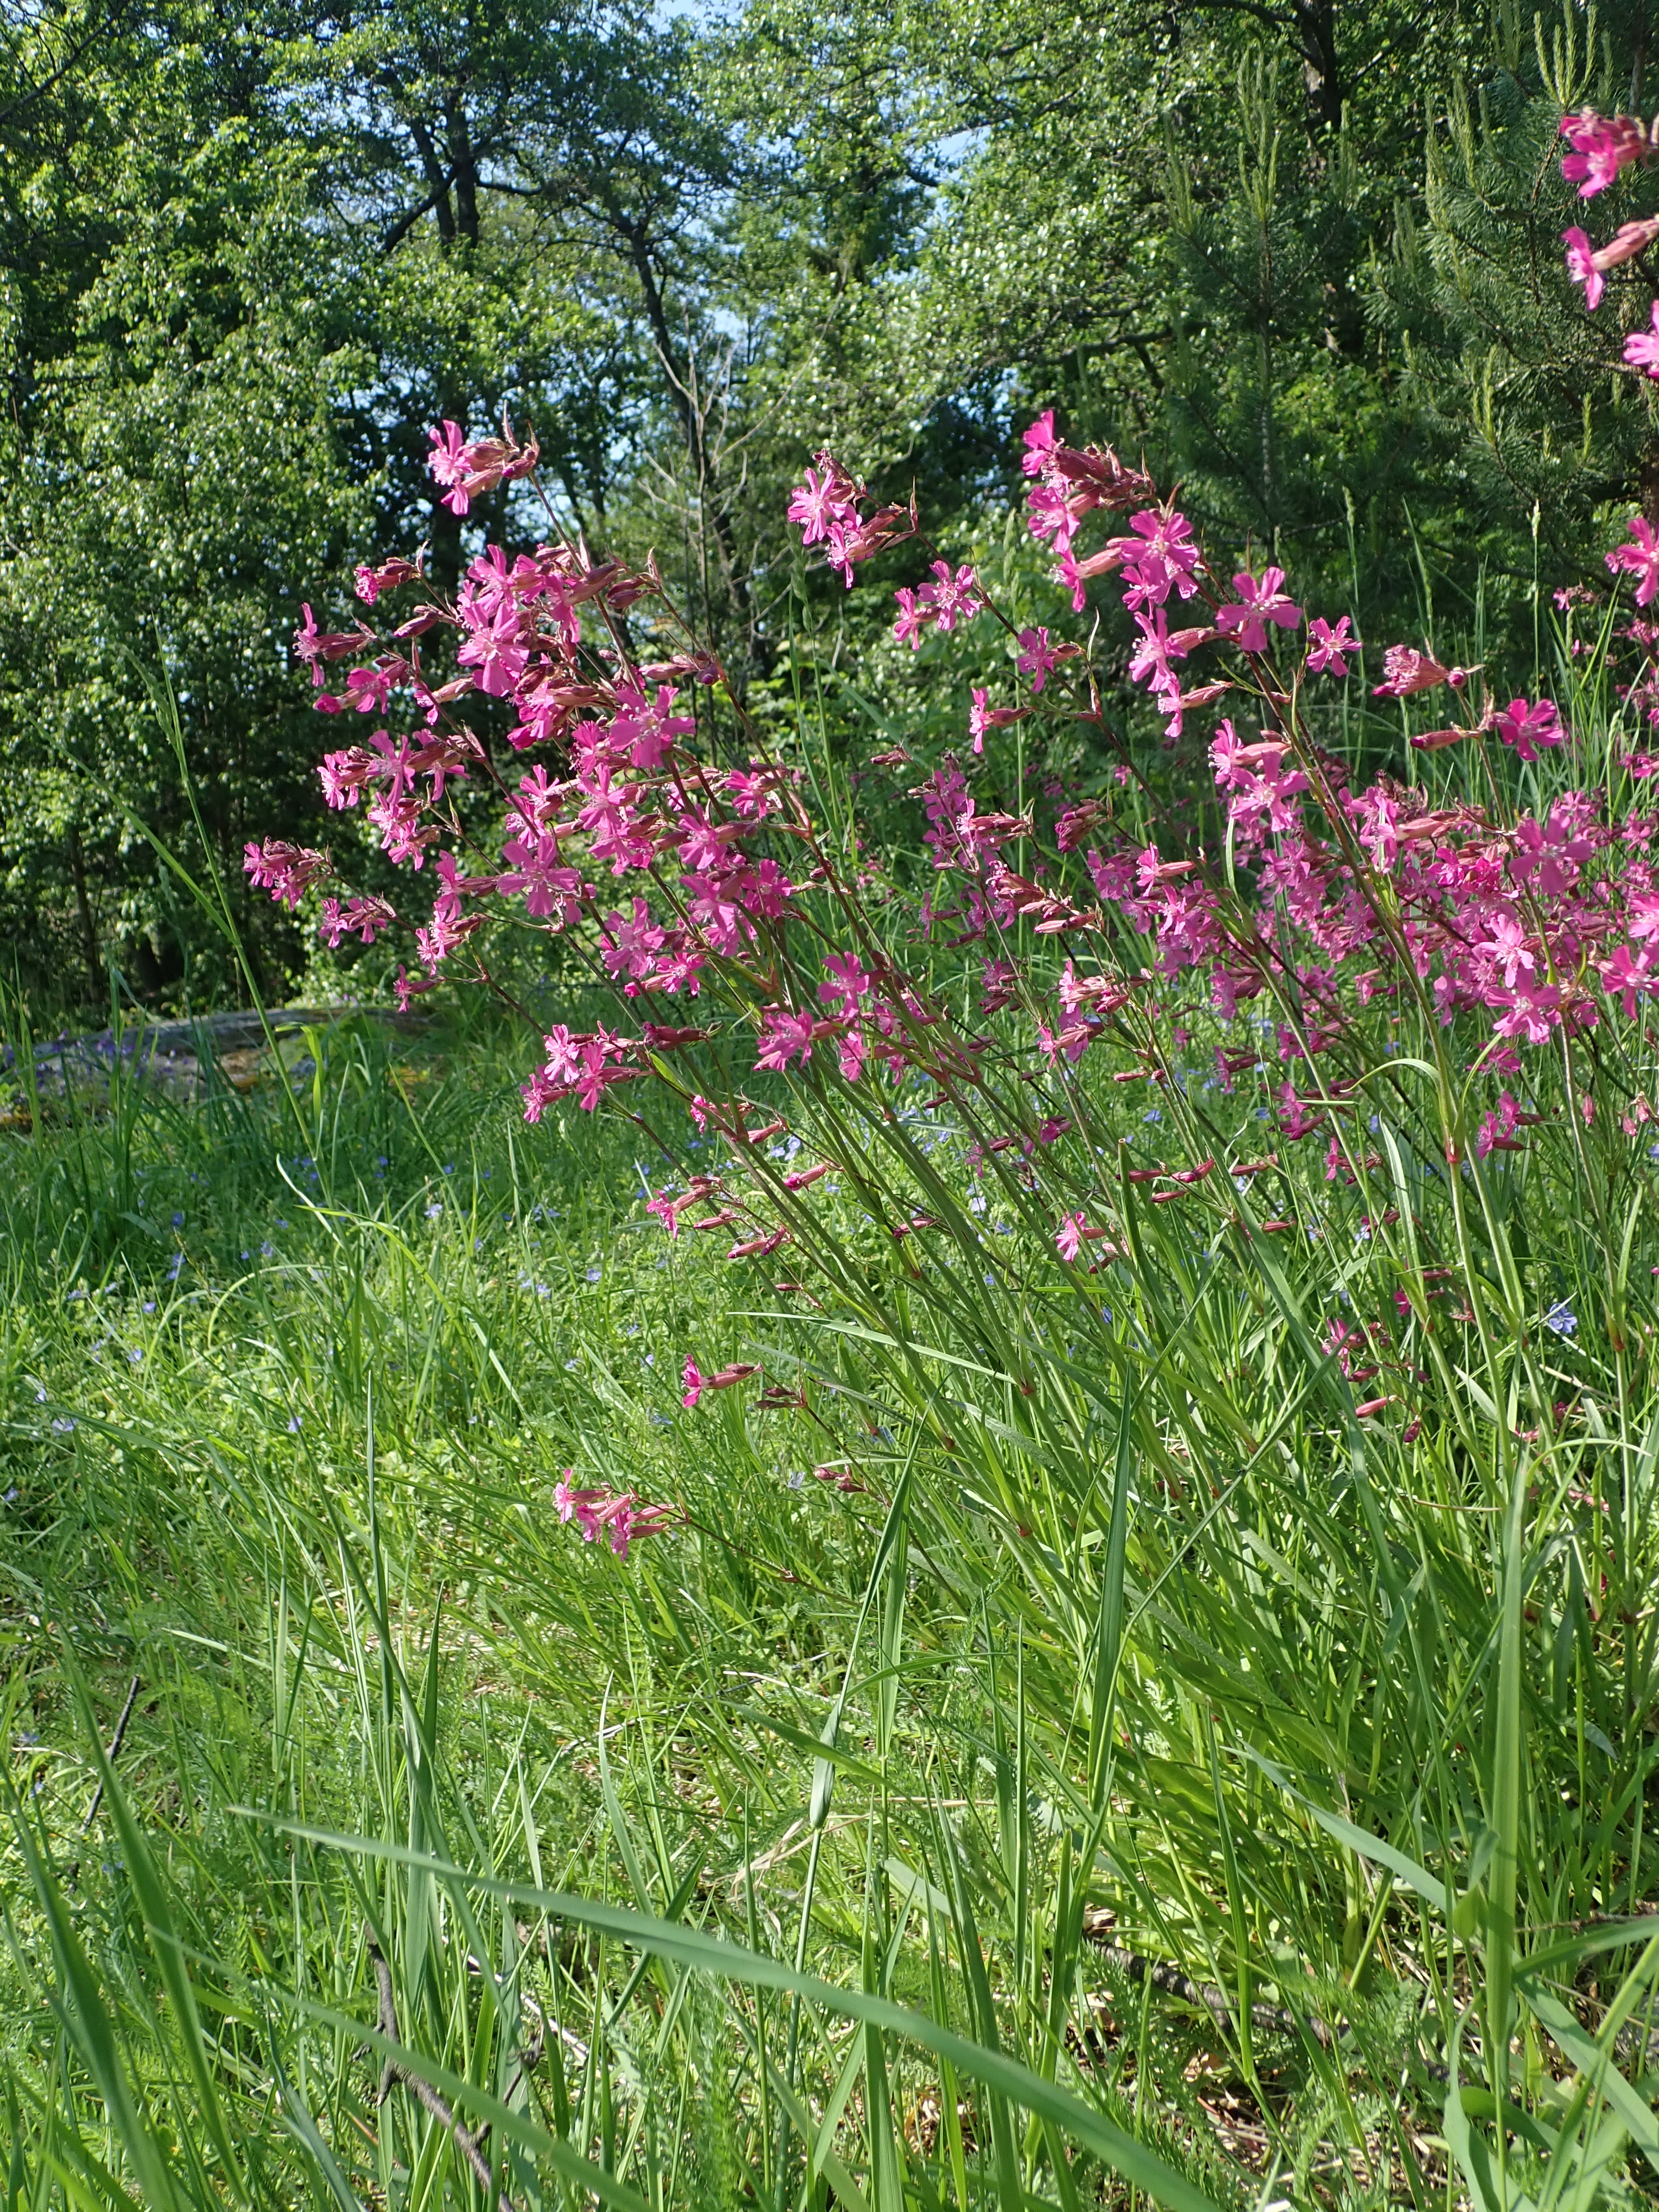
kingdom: Plantae
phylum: Tracheophyta
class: Magnoliopsida
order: Caryophyllales
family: Caryophyllaceae
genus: Viscaria
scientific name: Viscaria vulgaris
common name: Clammy campion
